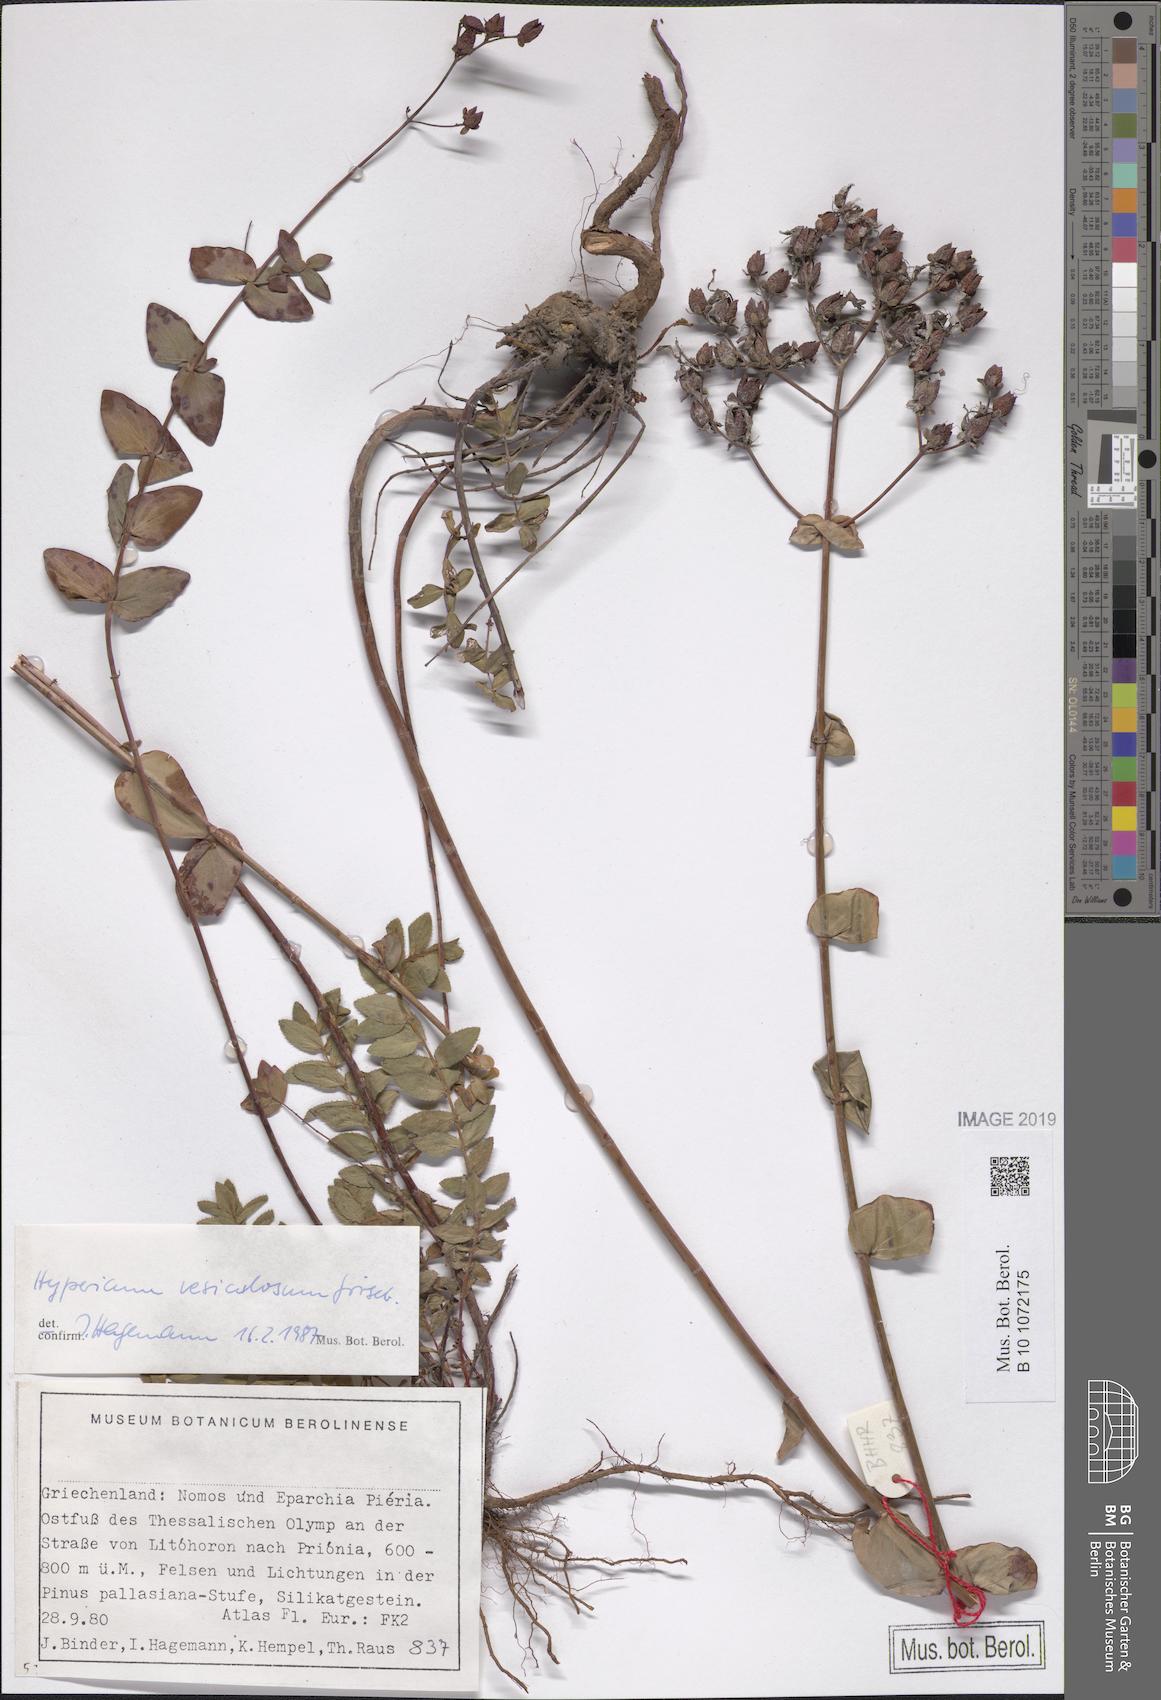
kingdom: Plantae
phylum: Tracheophyta
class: Magnoliopsida
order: Malpighiales
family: Hypericaceae
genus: Hypericum
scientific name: Hypericum vesiculosum
